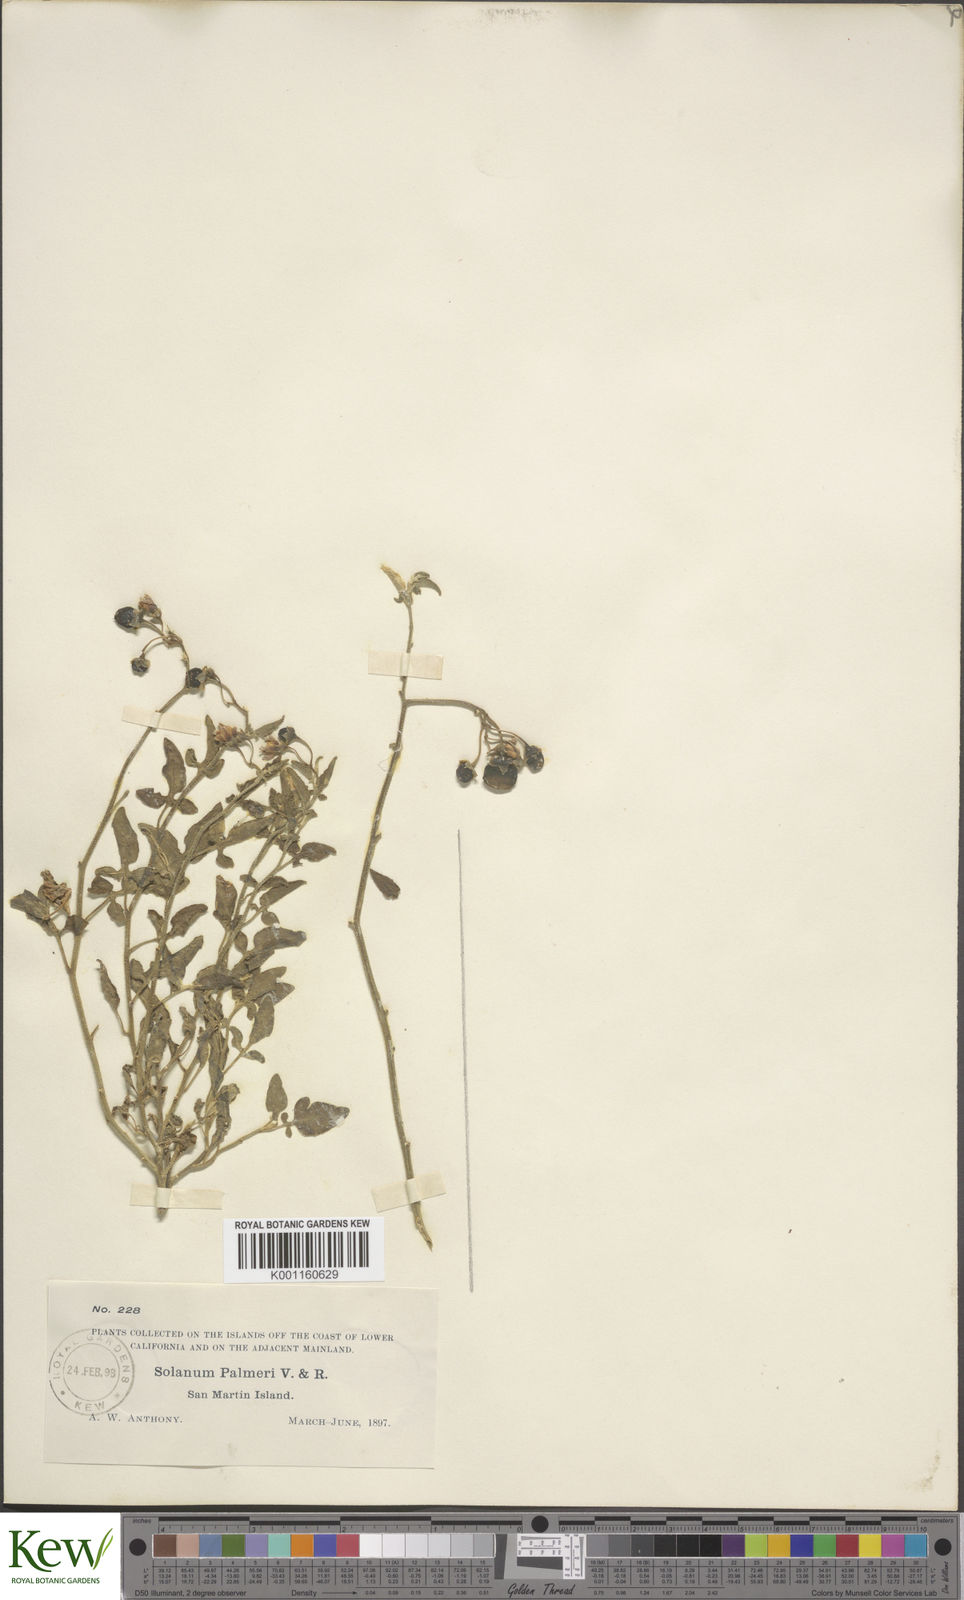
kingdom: Plantae
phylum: Tracheophyta
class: Magnoliopsida
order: Solanales
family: Solanaceae
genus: Solanum
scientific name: Solanum palmeri
